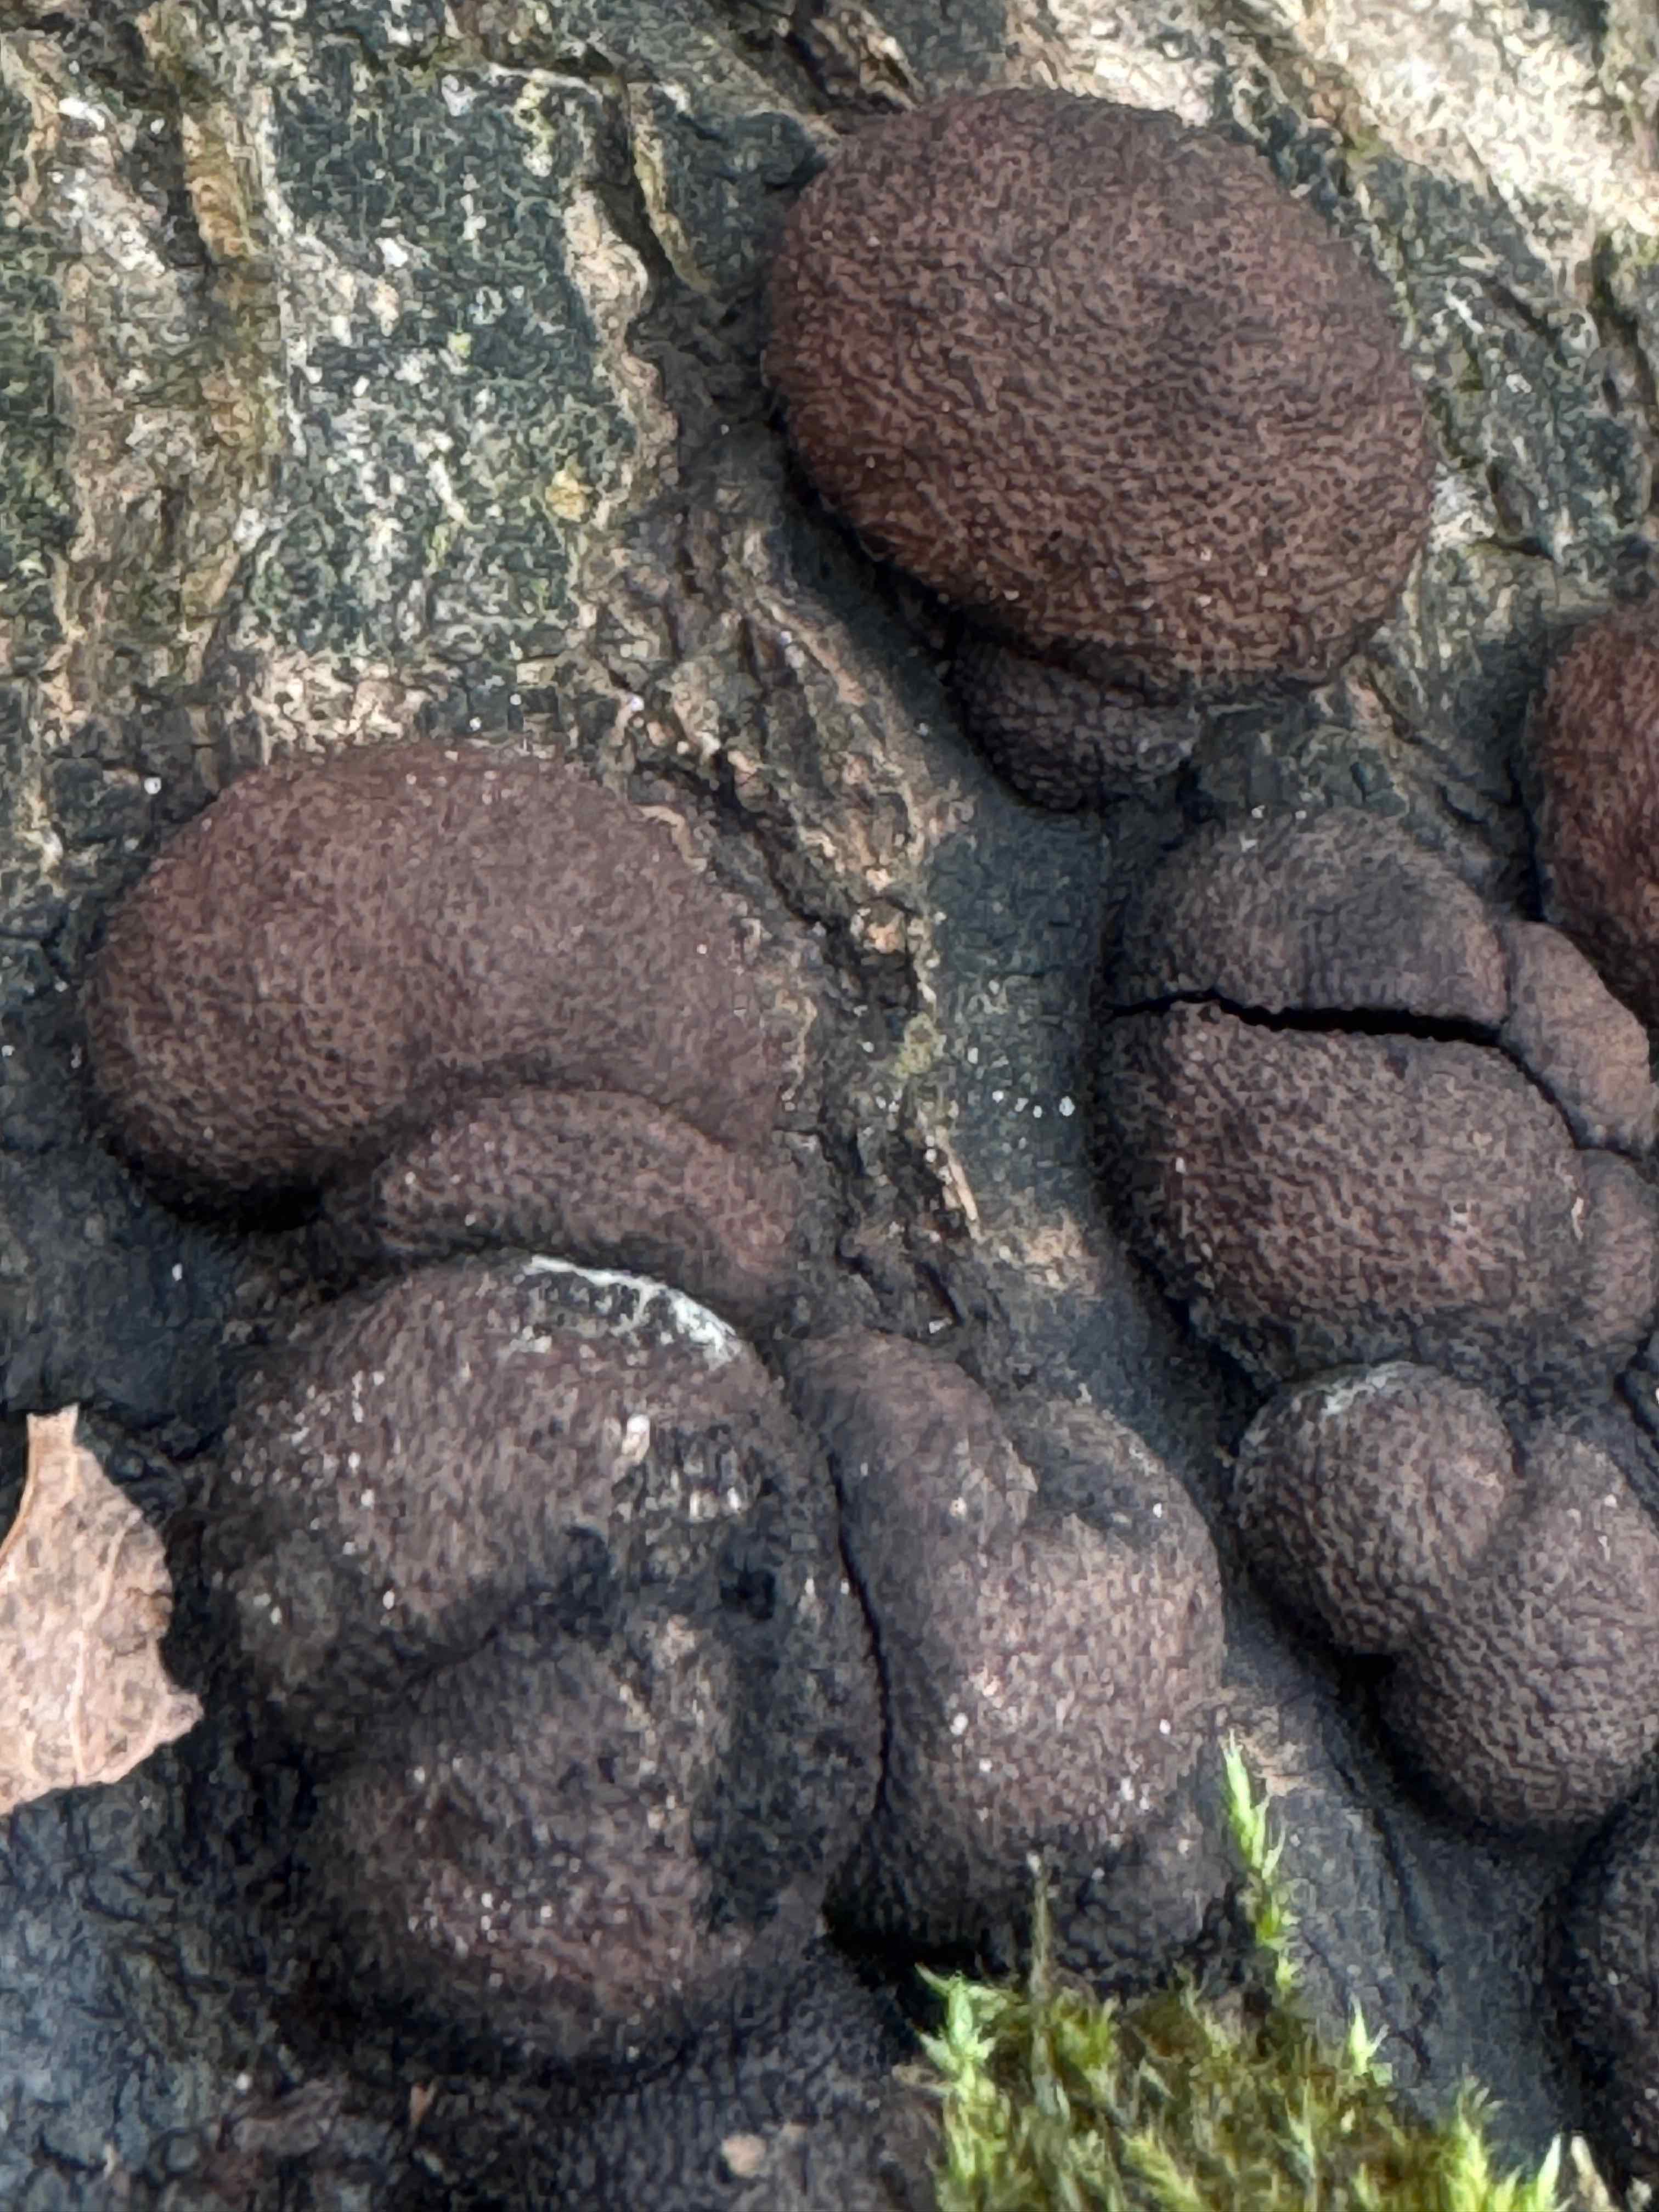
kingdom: Fungi
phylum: Ascomycota
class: Sordariomycetes
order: Xylariales
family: Hypoxylaceae
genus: Hypoxylon
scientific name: Hypoxylon fragiforme
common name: kuljordbær
